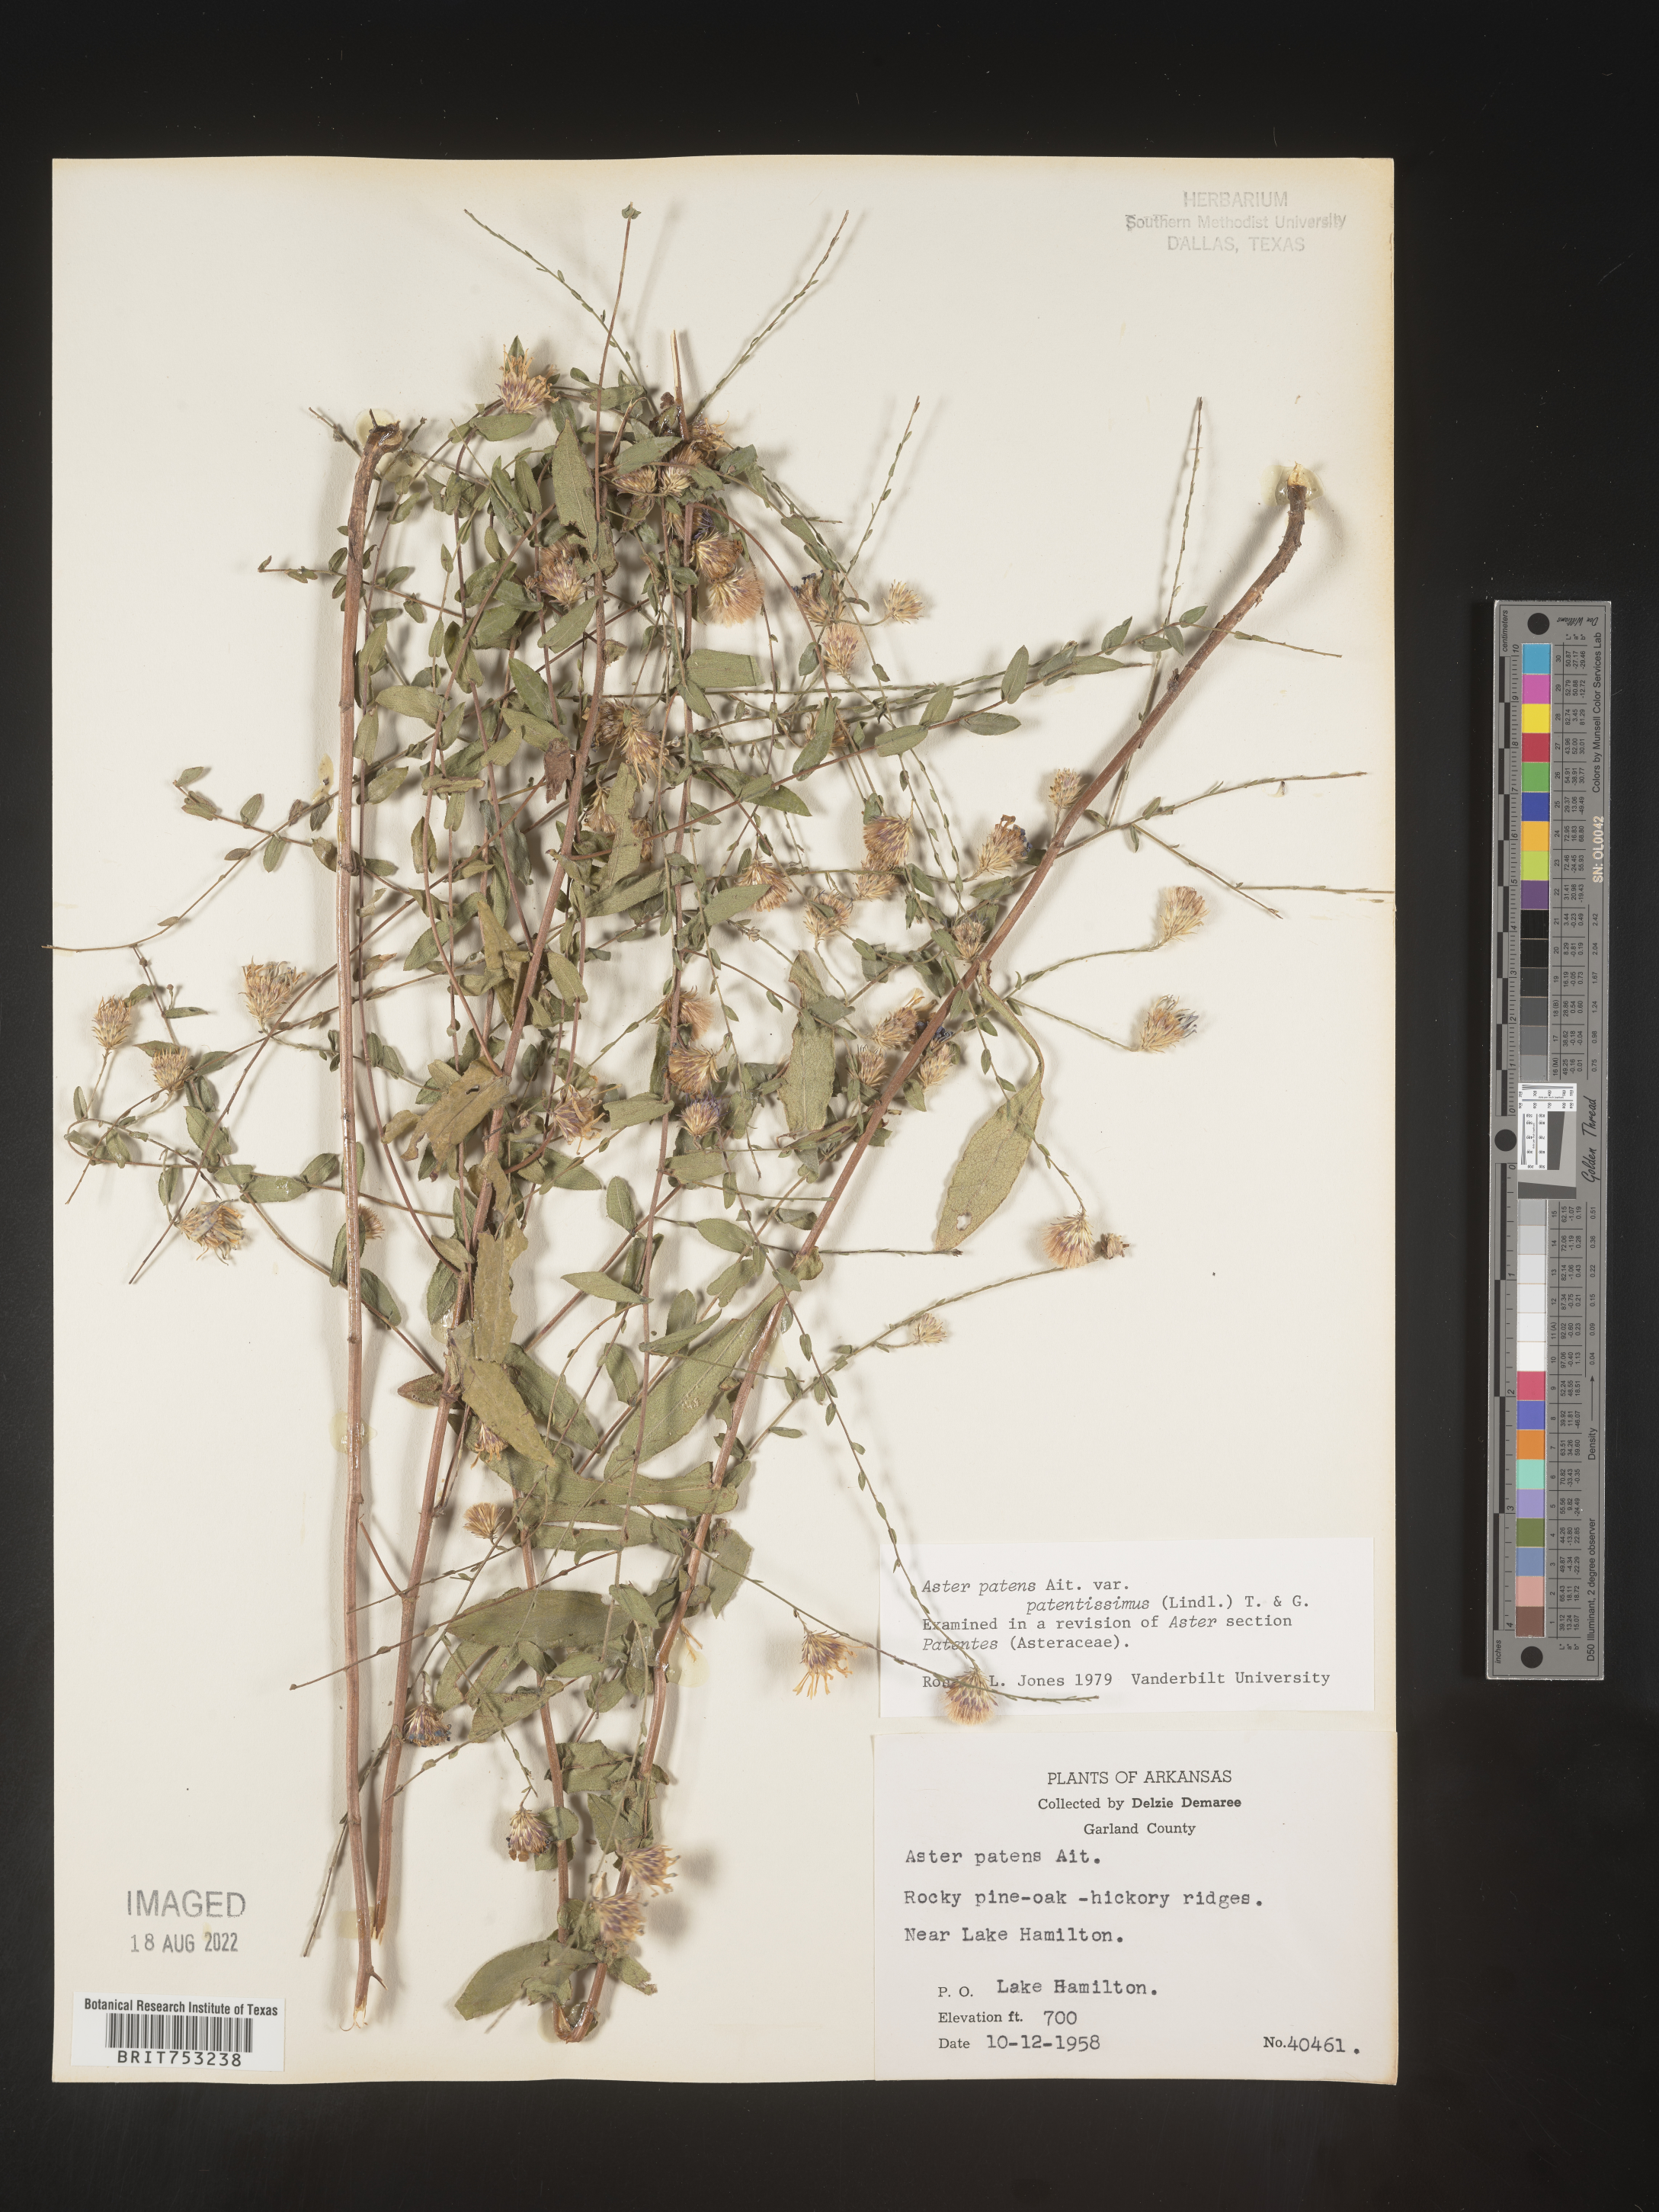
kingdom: Plantae
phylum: Tracheophyta
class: Magnoliopsida
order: Asterales
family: Asteraceae
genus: Symphyotrichum
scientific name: Symphyotrichum patens
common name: Late purple aster
